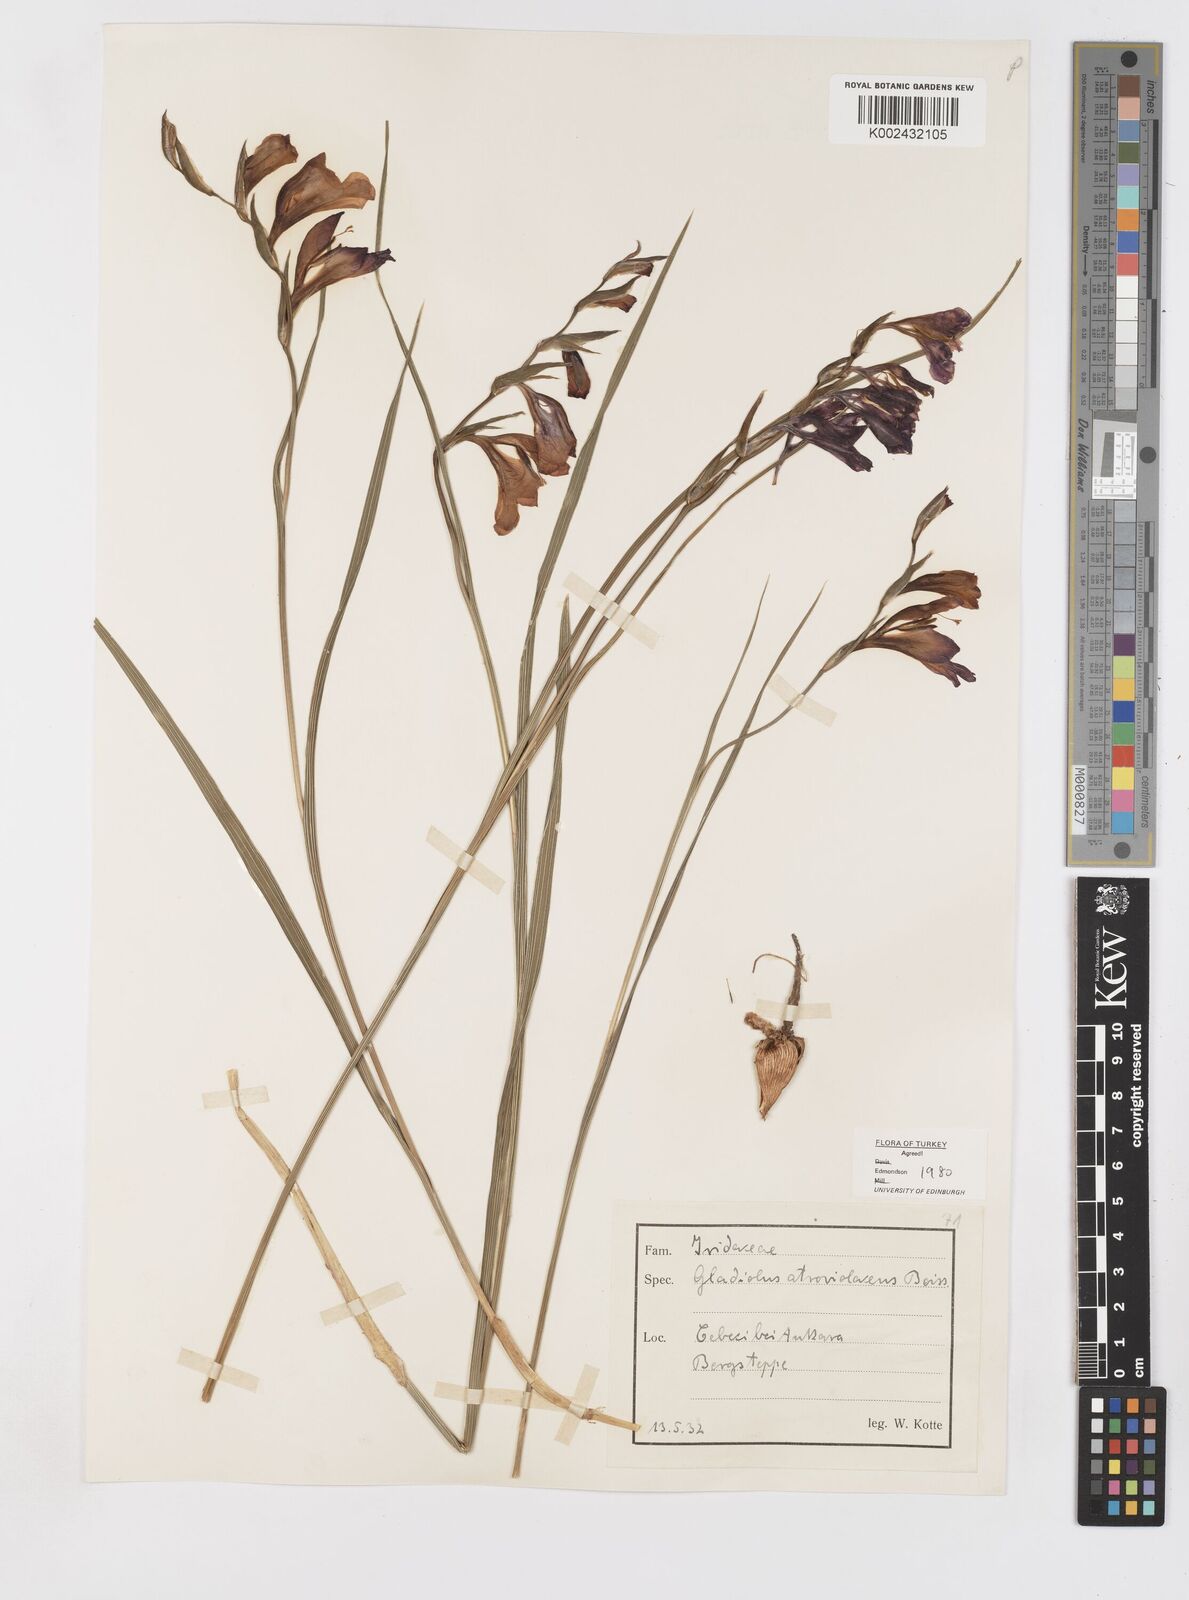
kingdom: Plantae
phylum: Tracheophyta
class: Liliopsida
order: Asparagales
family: Iridaceae
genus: Gladiolus
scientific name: Gladiolus atroviolaceus
